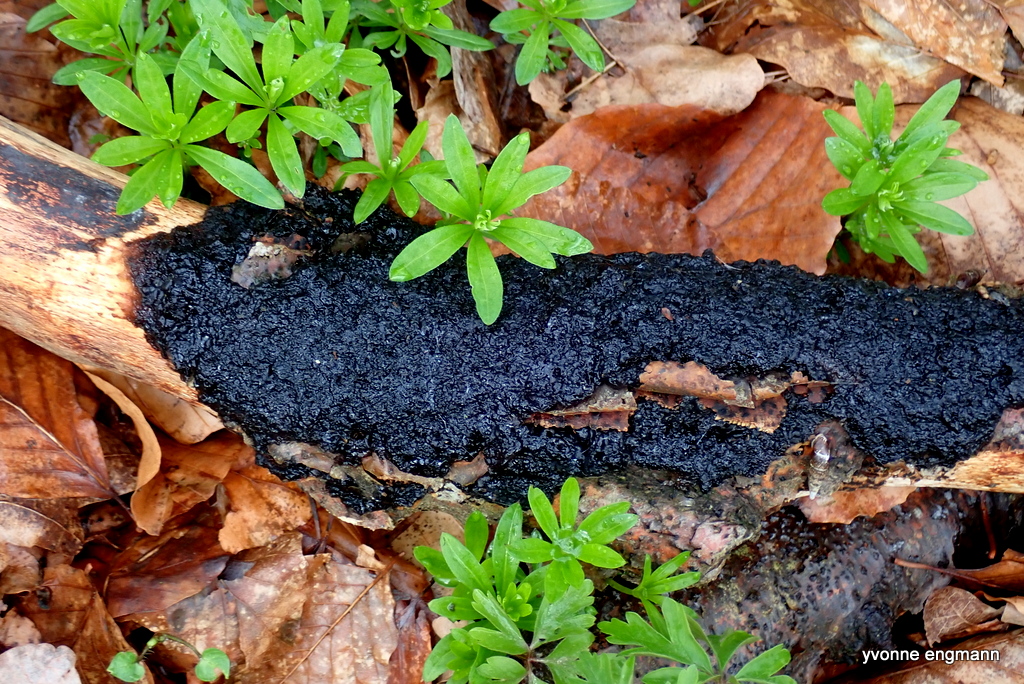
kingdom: Fungi
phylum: Basidiomycota
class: Agaricomycetes
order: Auriculariales
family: Auriculariaceae
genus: Exidia
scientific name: Exidia nigricans
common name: almindelig bævretop
